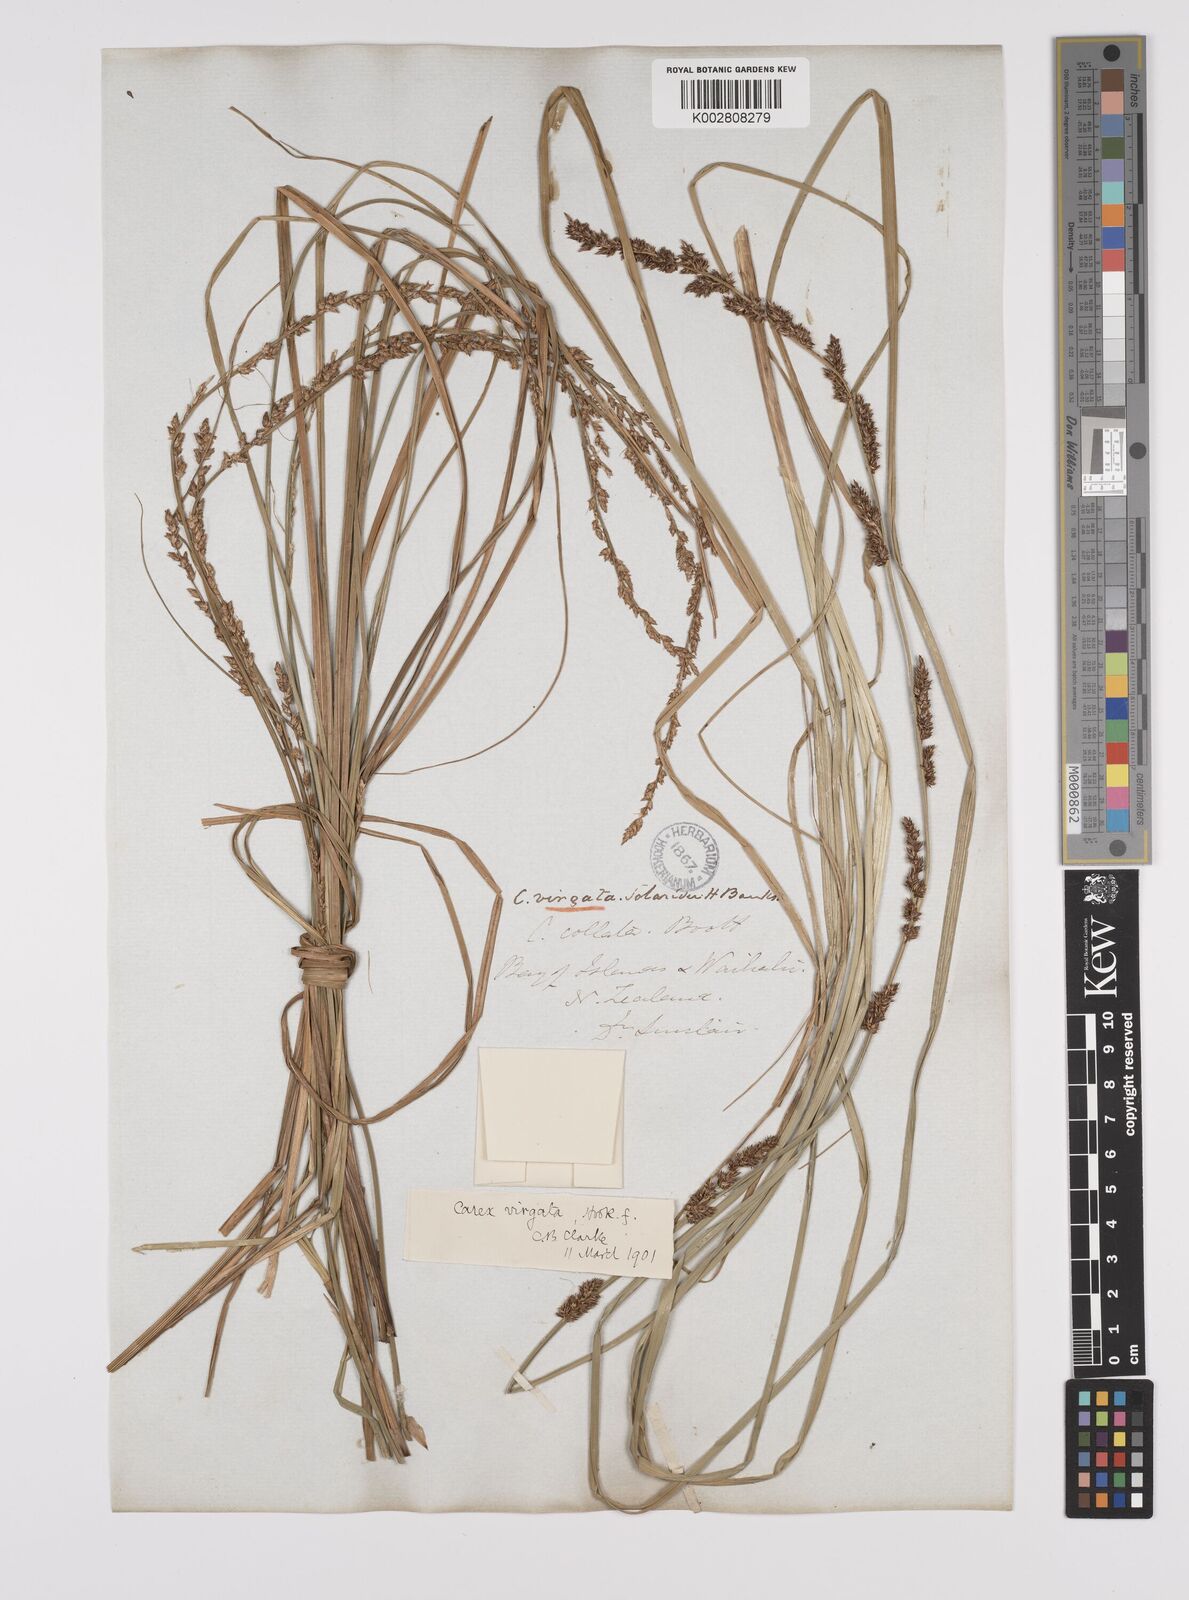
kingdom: Plantae
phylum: Tracheophyta
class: Liliopsida
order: Poales
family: Cyperaceae
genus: Carex
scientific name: Carex appressa
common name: Tussock sedge
